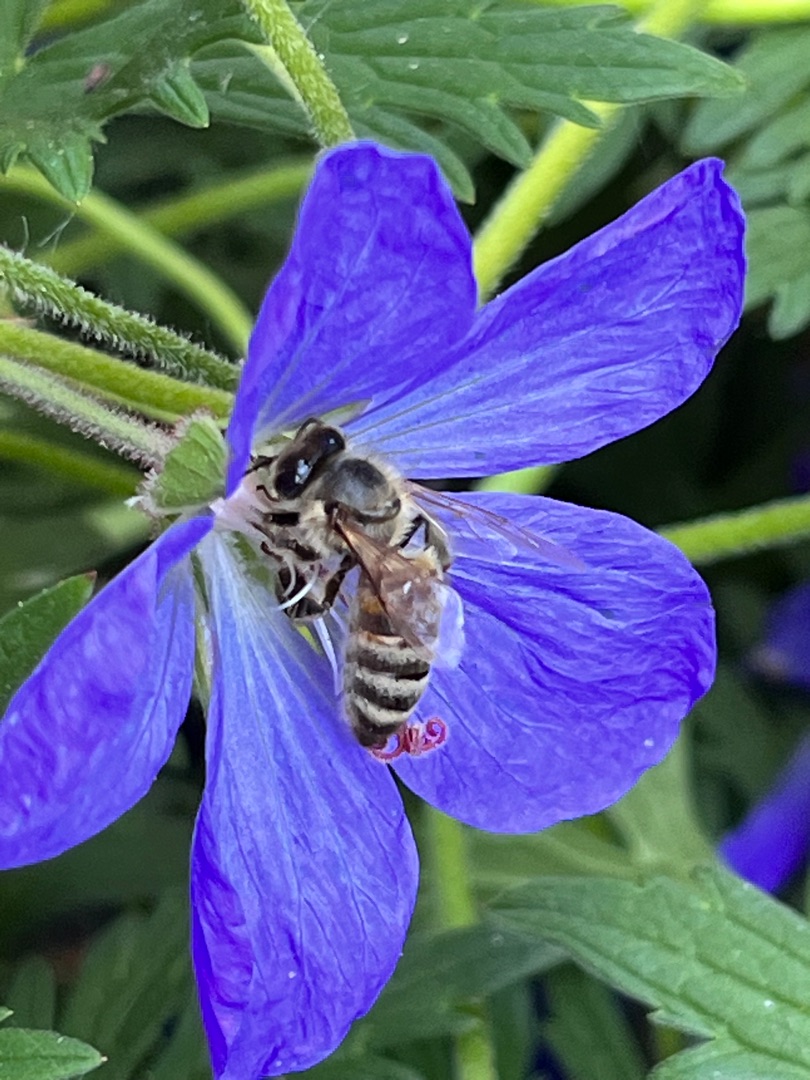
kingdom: Animalia
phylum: Arthropoda
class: Insecta
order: Hymenoptera
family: Apidae
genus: Apis
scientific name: Apis mellifera
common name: Honningbi
